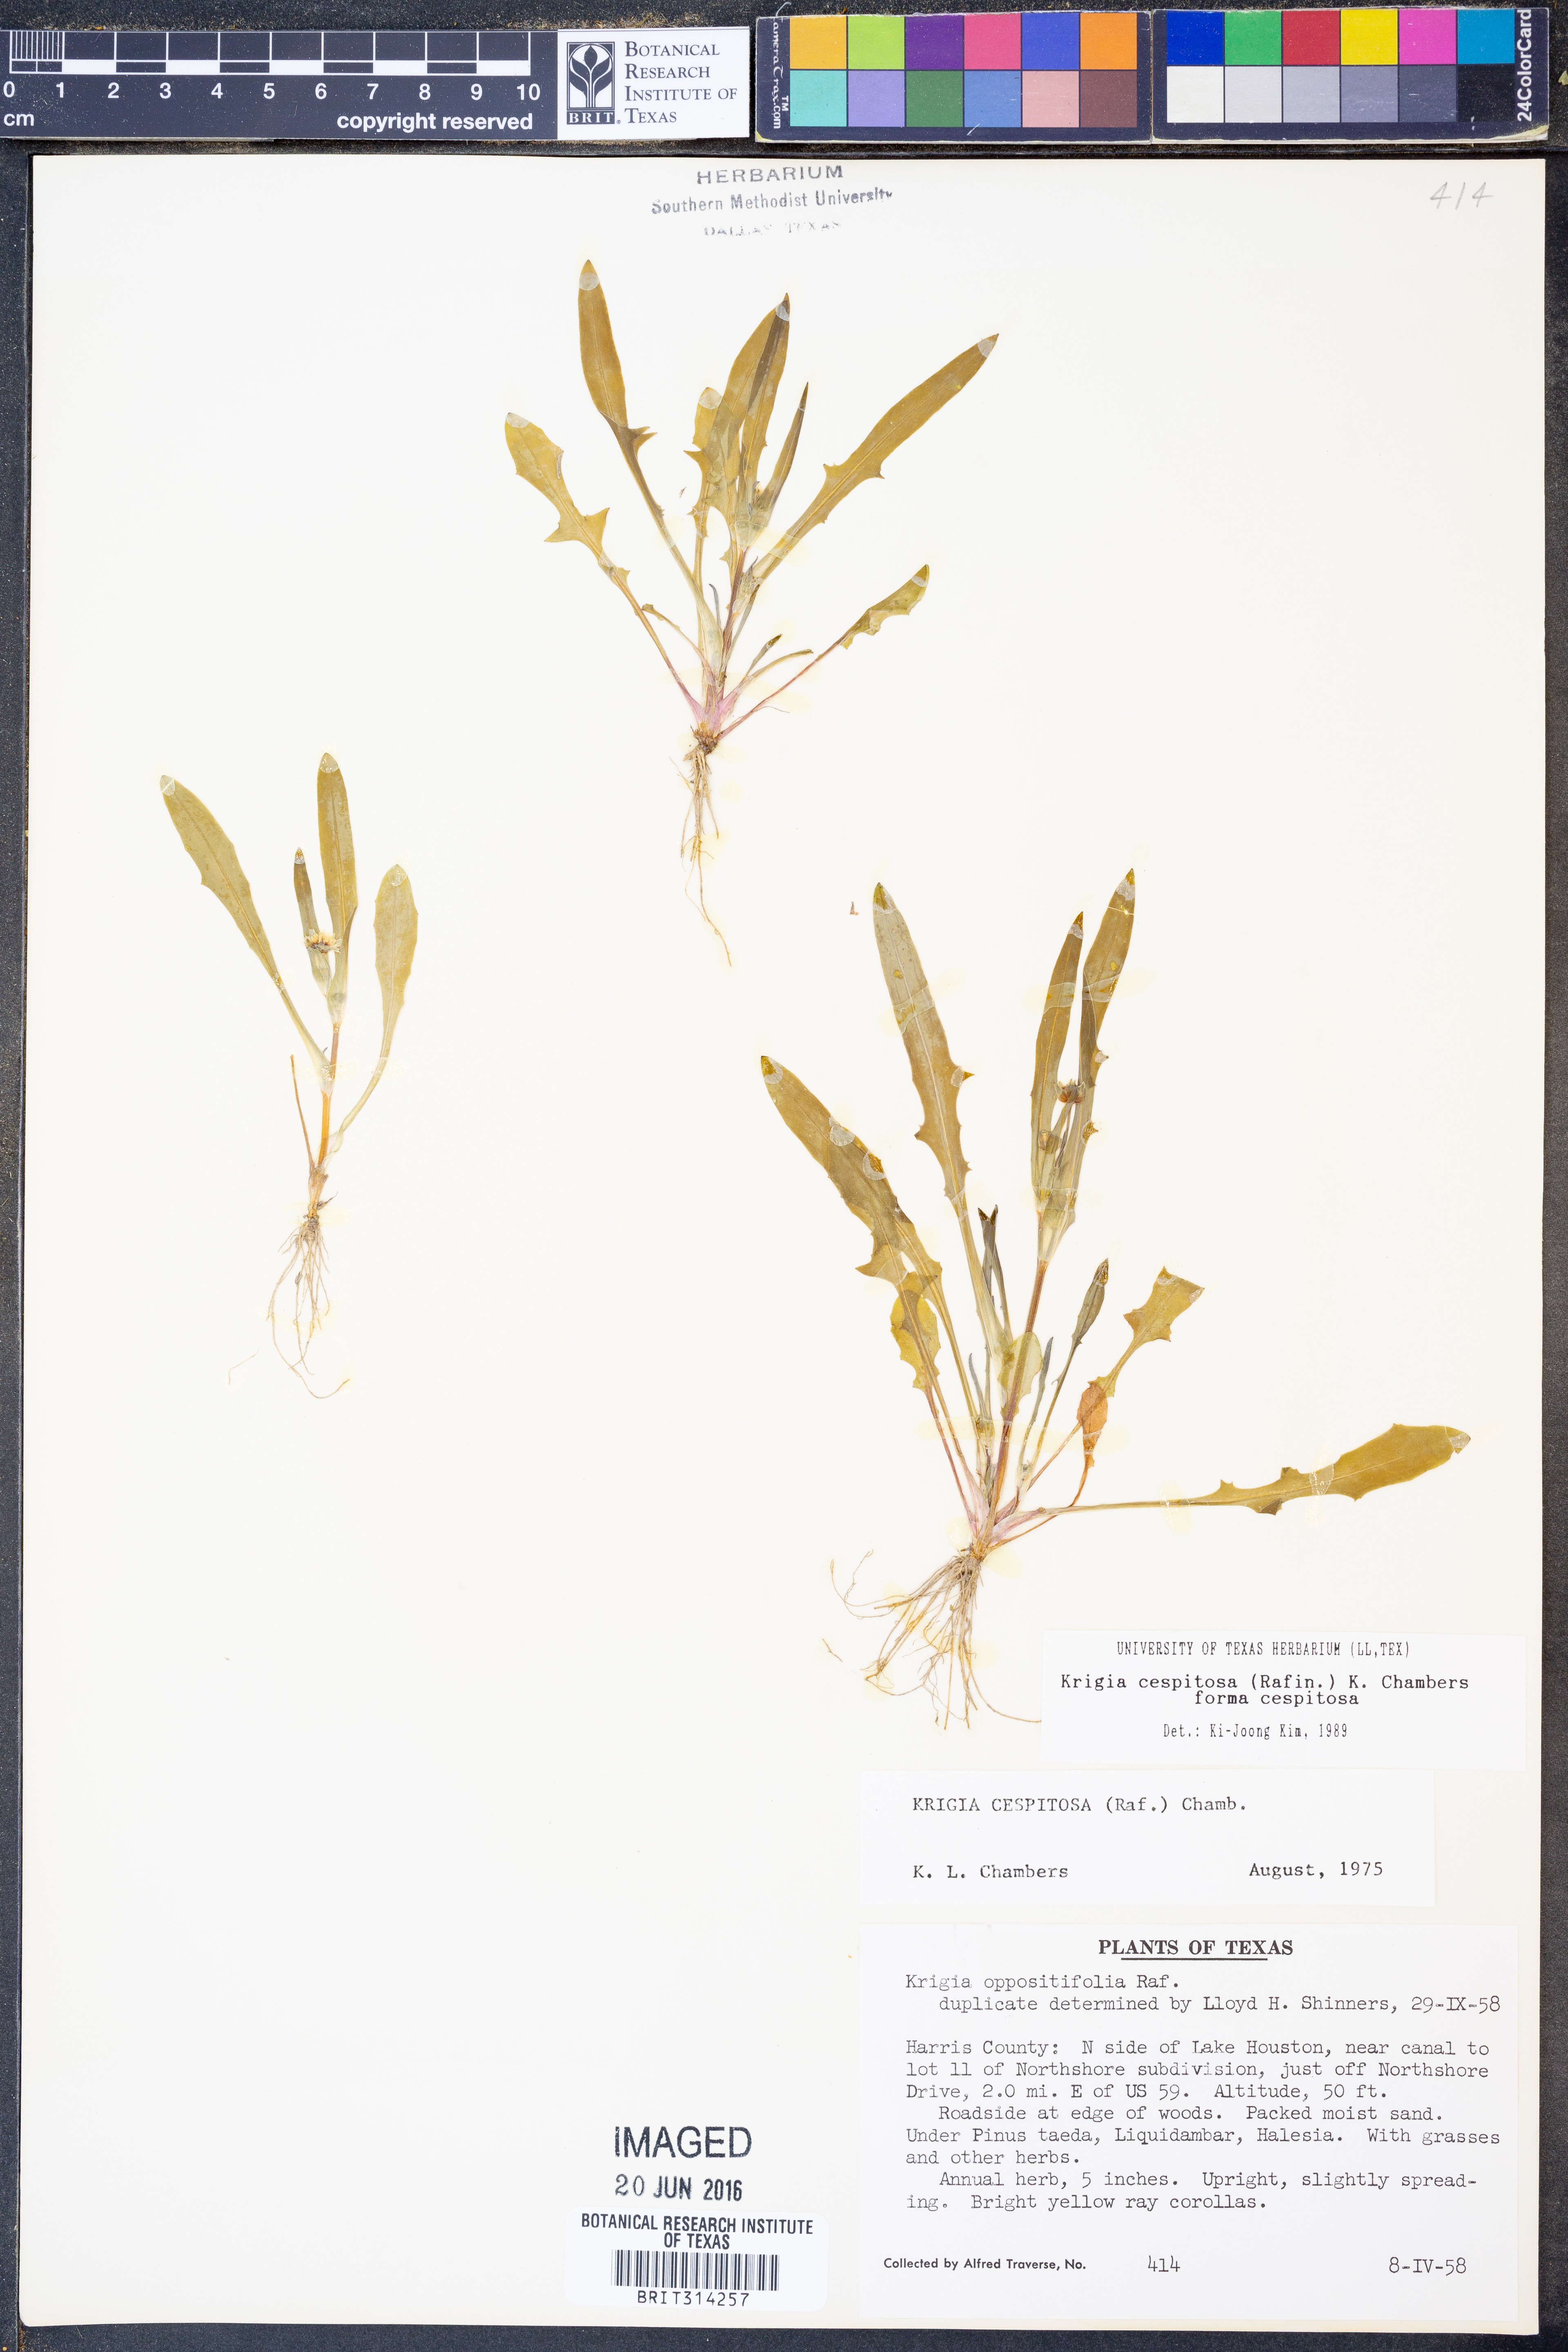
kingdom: Plantae
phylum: Tracheophyta
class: Magnoliopsida
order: Asterales
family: Asteraceae
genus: Krigia
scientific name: Krigia cespitosa
